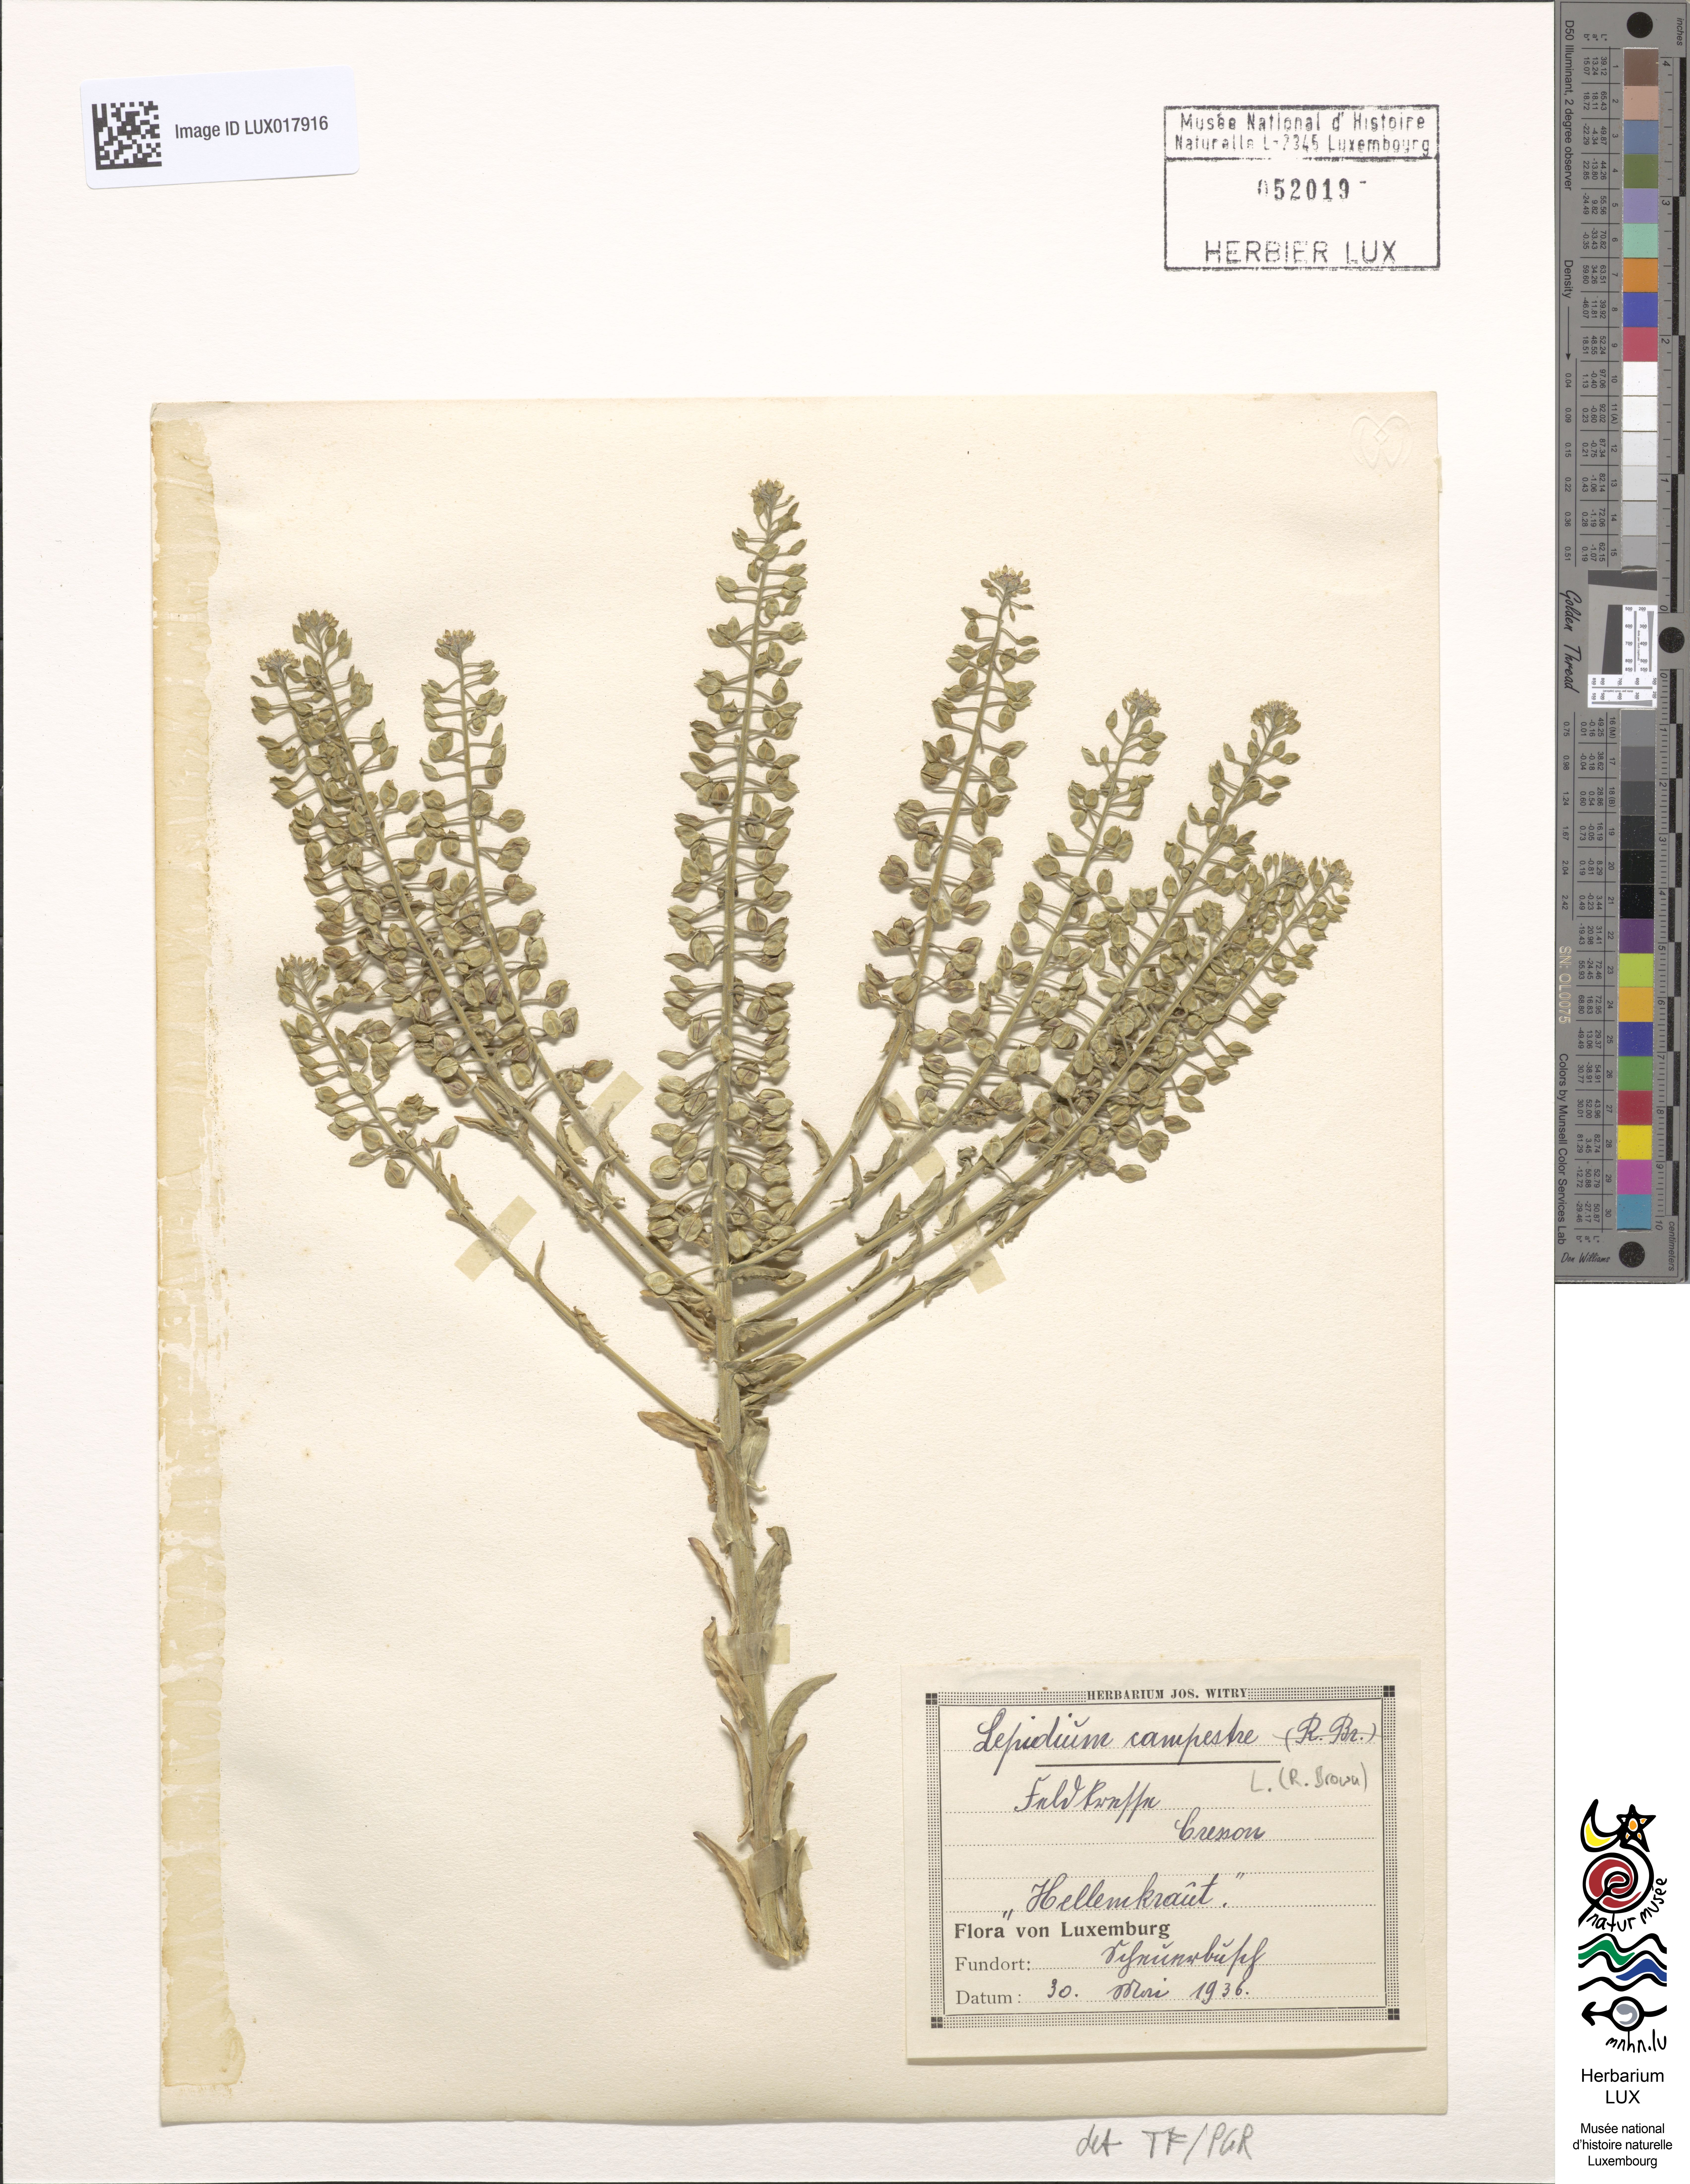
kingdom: Plantae
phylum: Tracheophyta
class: Magnoliopsida
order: Brassicales
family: Brassicaceae
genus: Lepidium
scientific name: Lepidium campestre
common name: Field pepperwort
